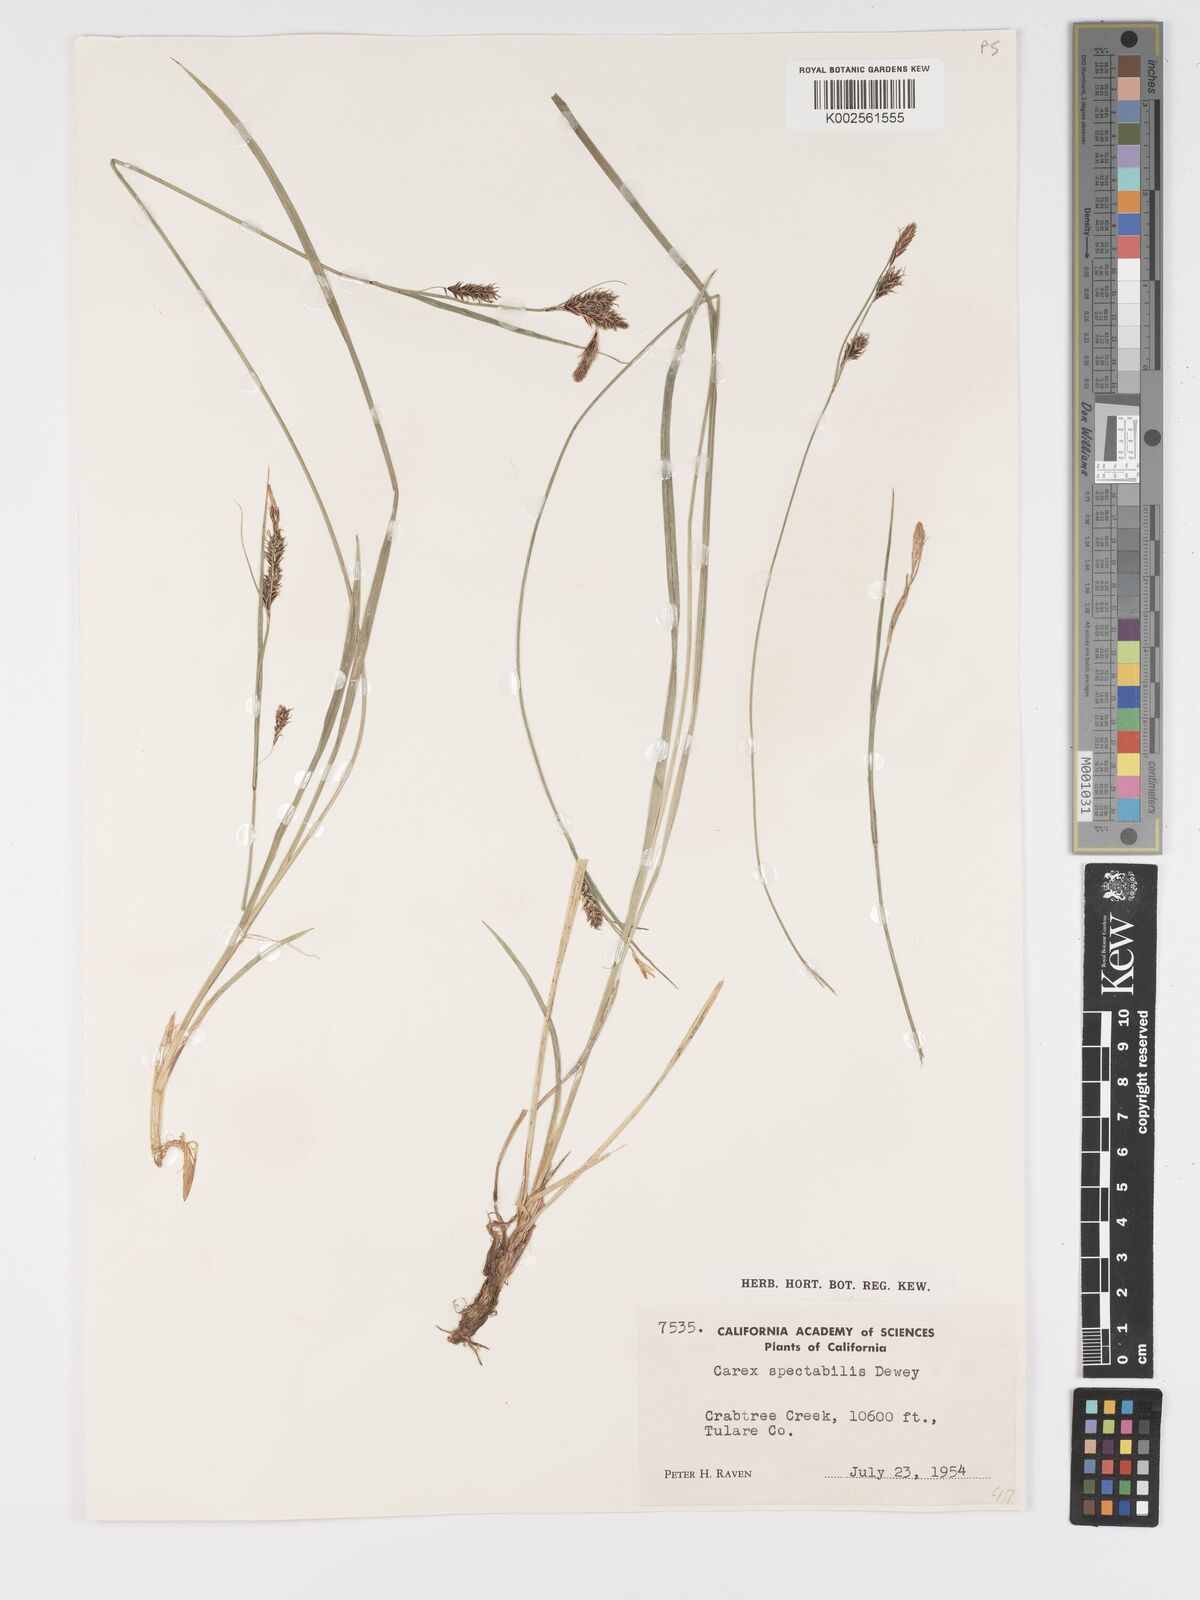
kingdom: Plantae
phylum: Tracheophyta
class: Liliopsida
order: Poales
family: Cyperaceae
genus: Carex
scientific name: Carex spectabilis
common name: Northwestern showy sedge
